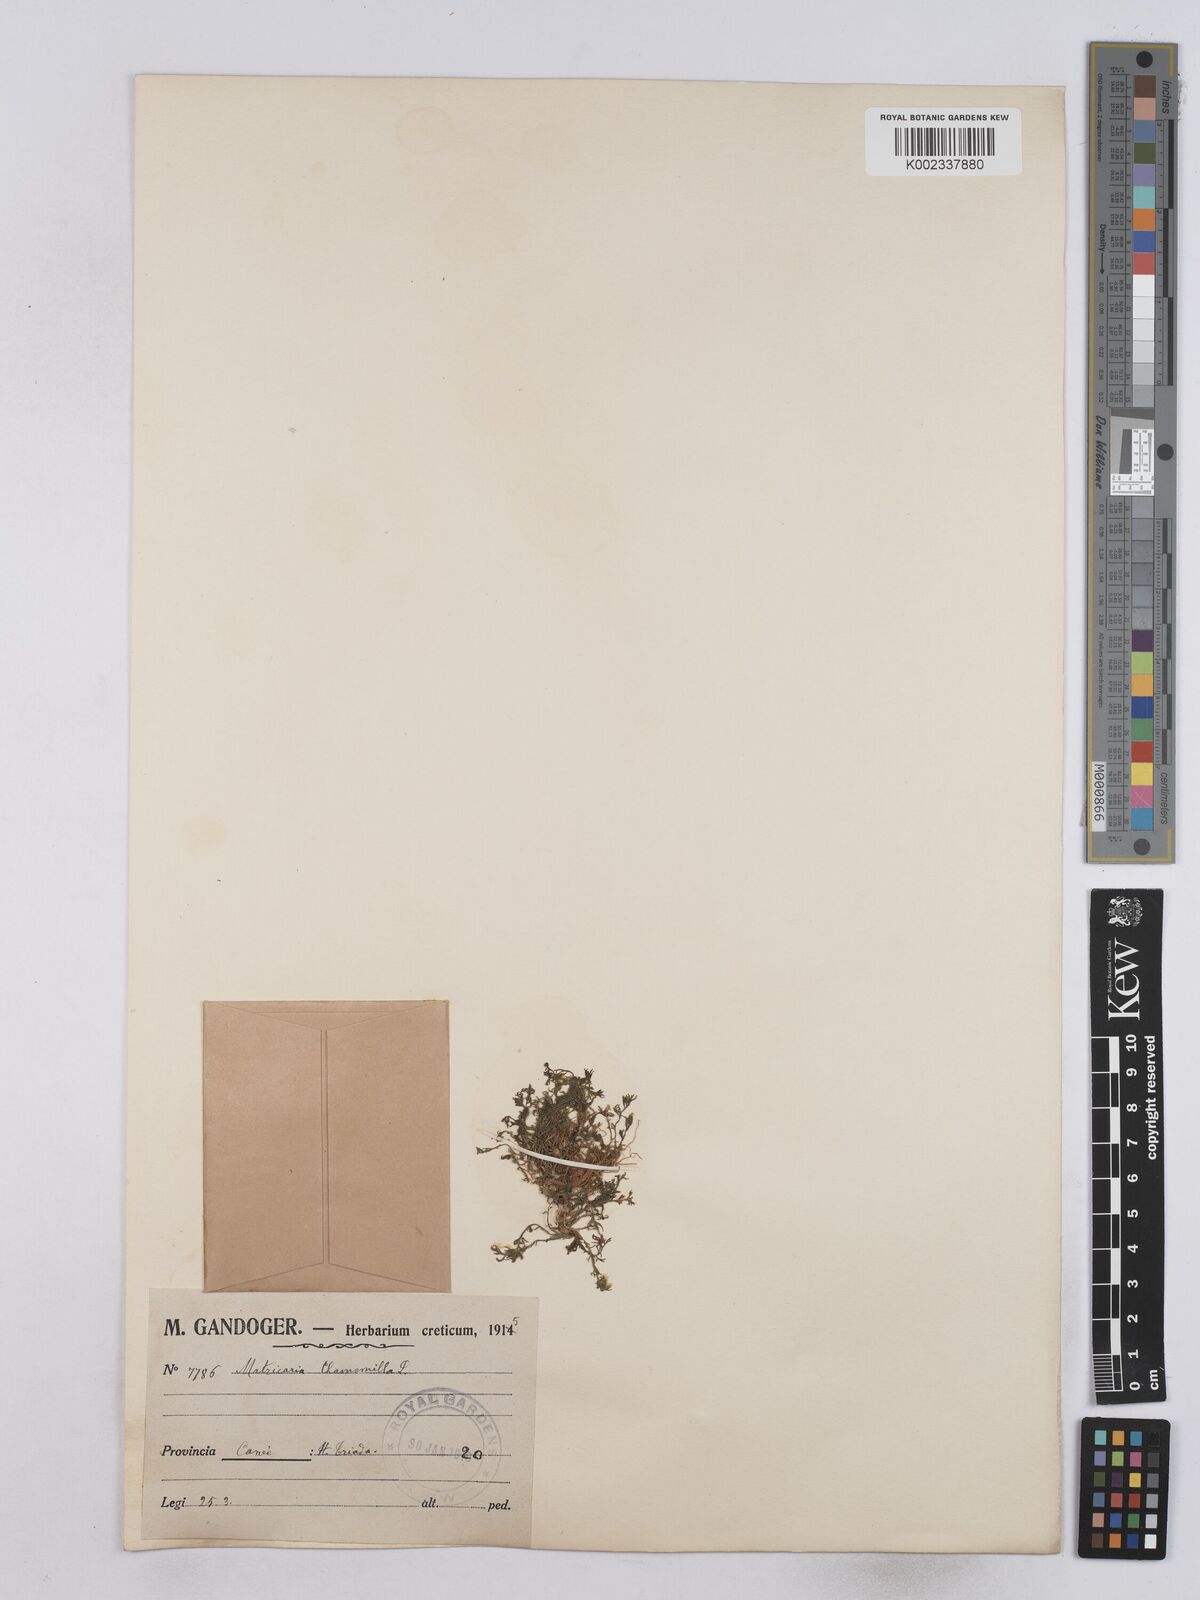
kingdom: Plantae
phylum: Tracheophyta
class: Magnoliopsida
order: Asterales
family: Asteraceae
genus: Matricaria
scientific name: Matricaria chamomilla
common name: Scented mayweed
